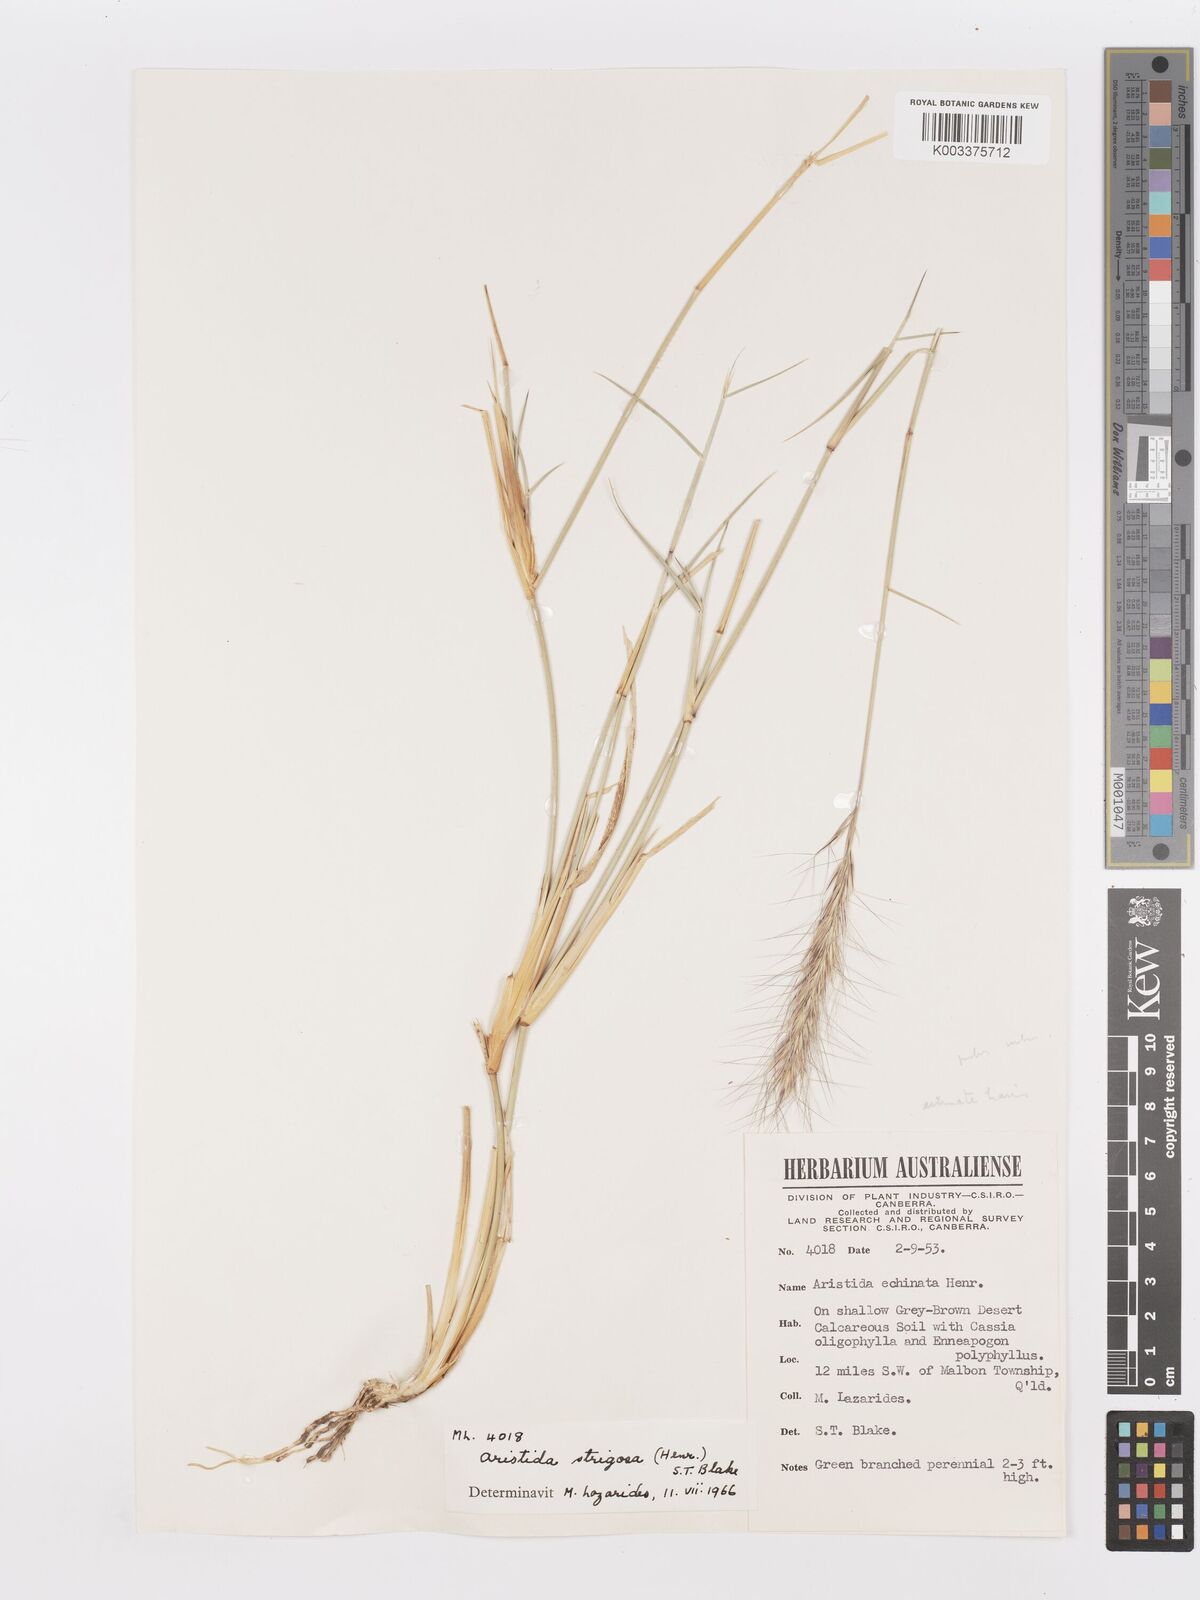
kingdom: Plantae
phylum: Tracheophyta
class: Liliopsida
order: Poales
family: Poaceae
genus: Aristida
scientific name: Aristida strigosa
